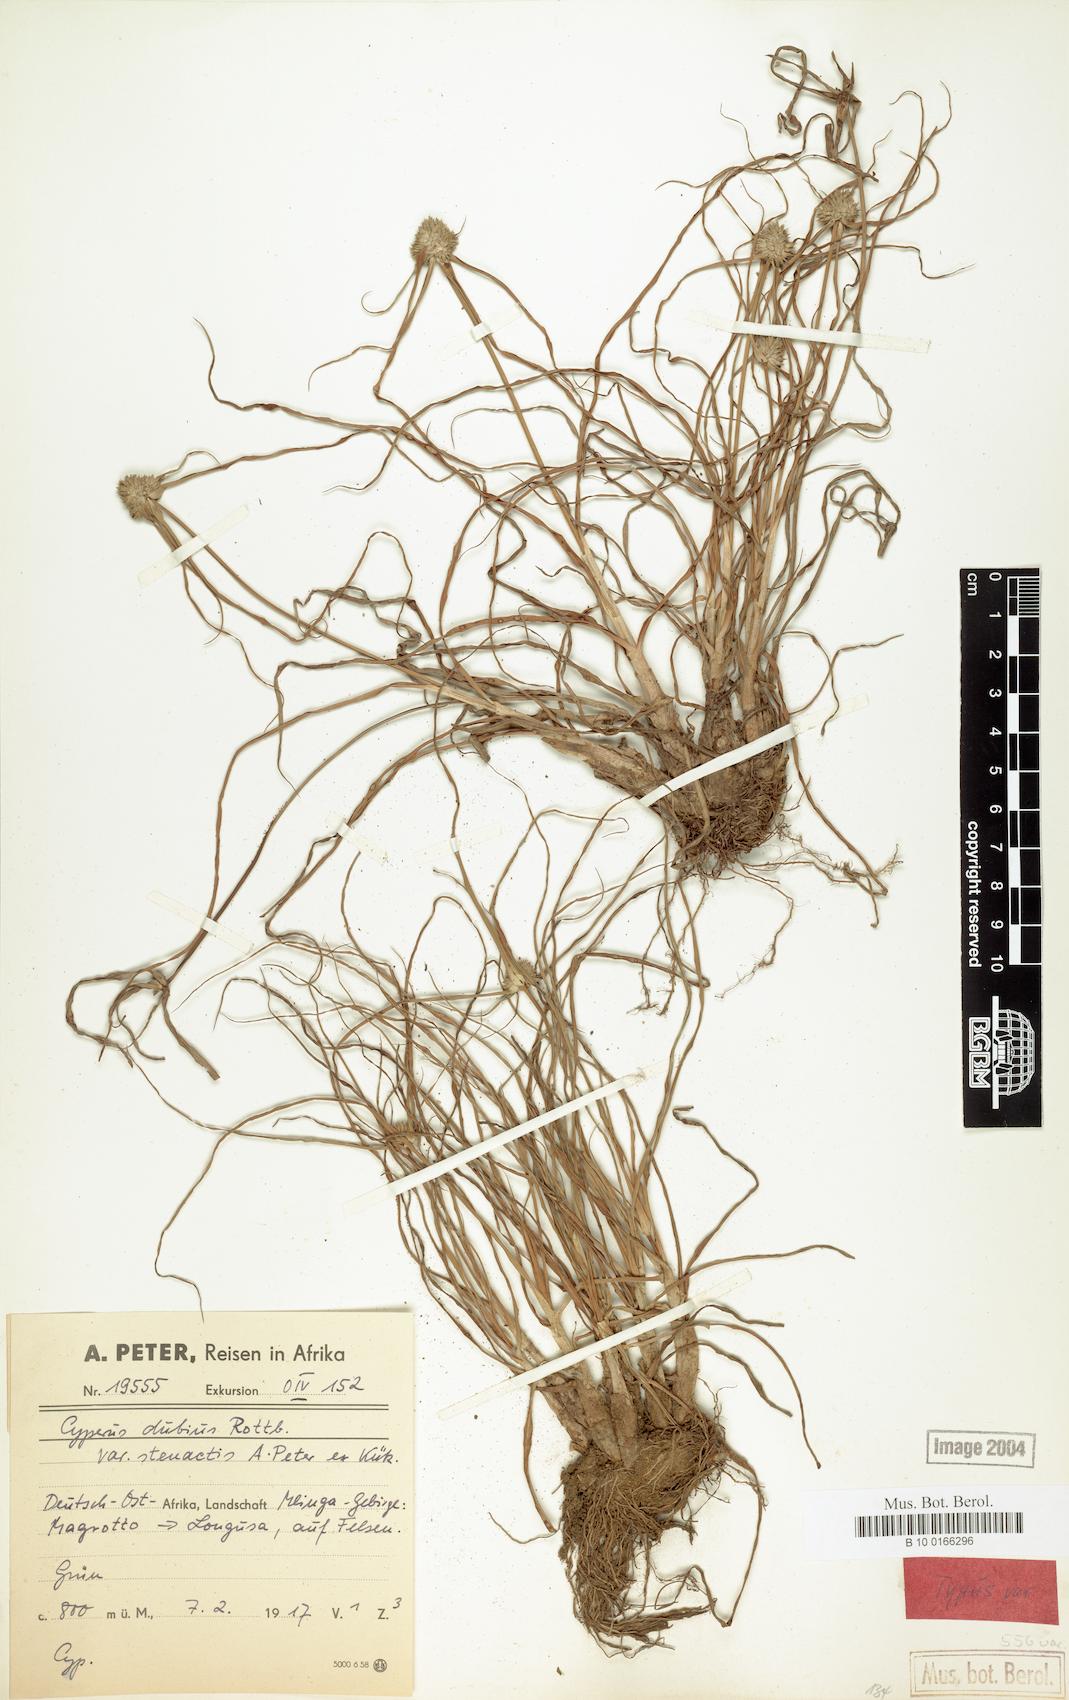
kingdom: Plantae
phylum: Tracheophyta
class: Liliopsida
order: Poales
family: Cyperaceae
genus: Cyperus
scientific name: Cyperus dubius
